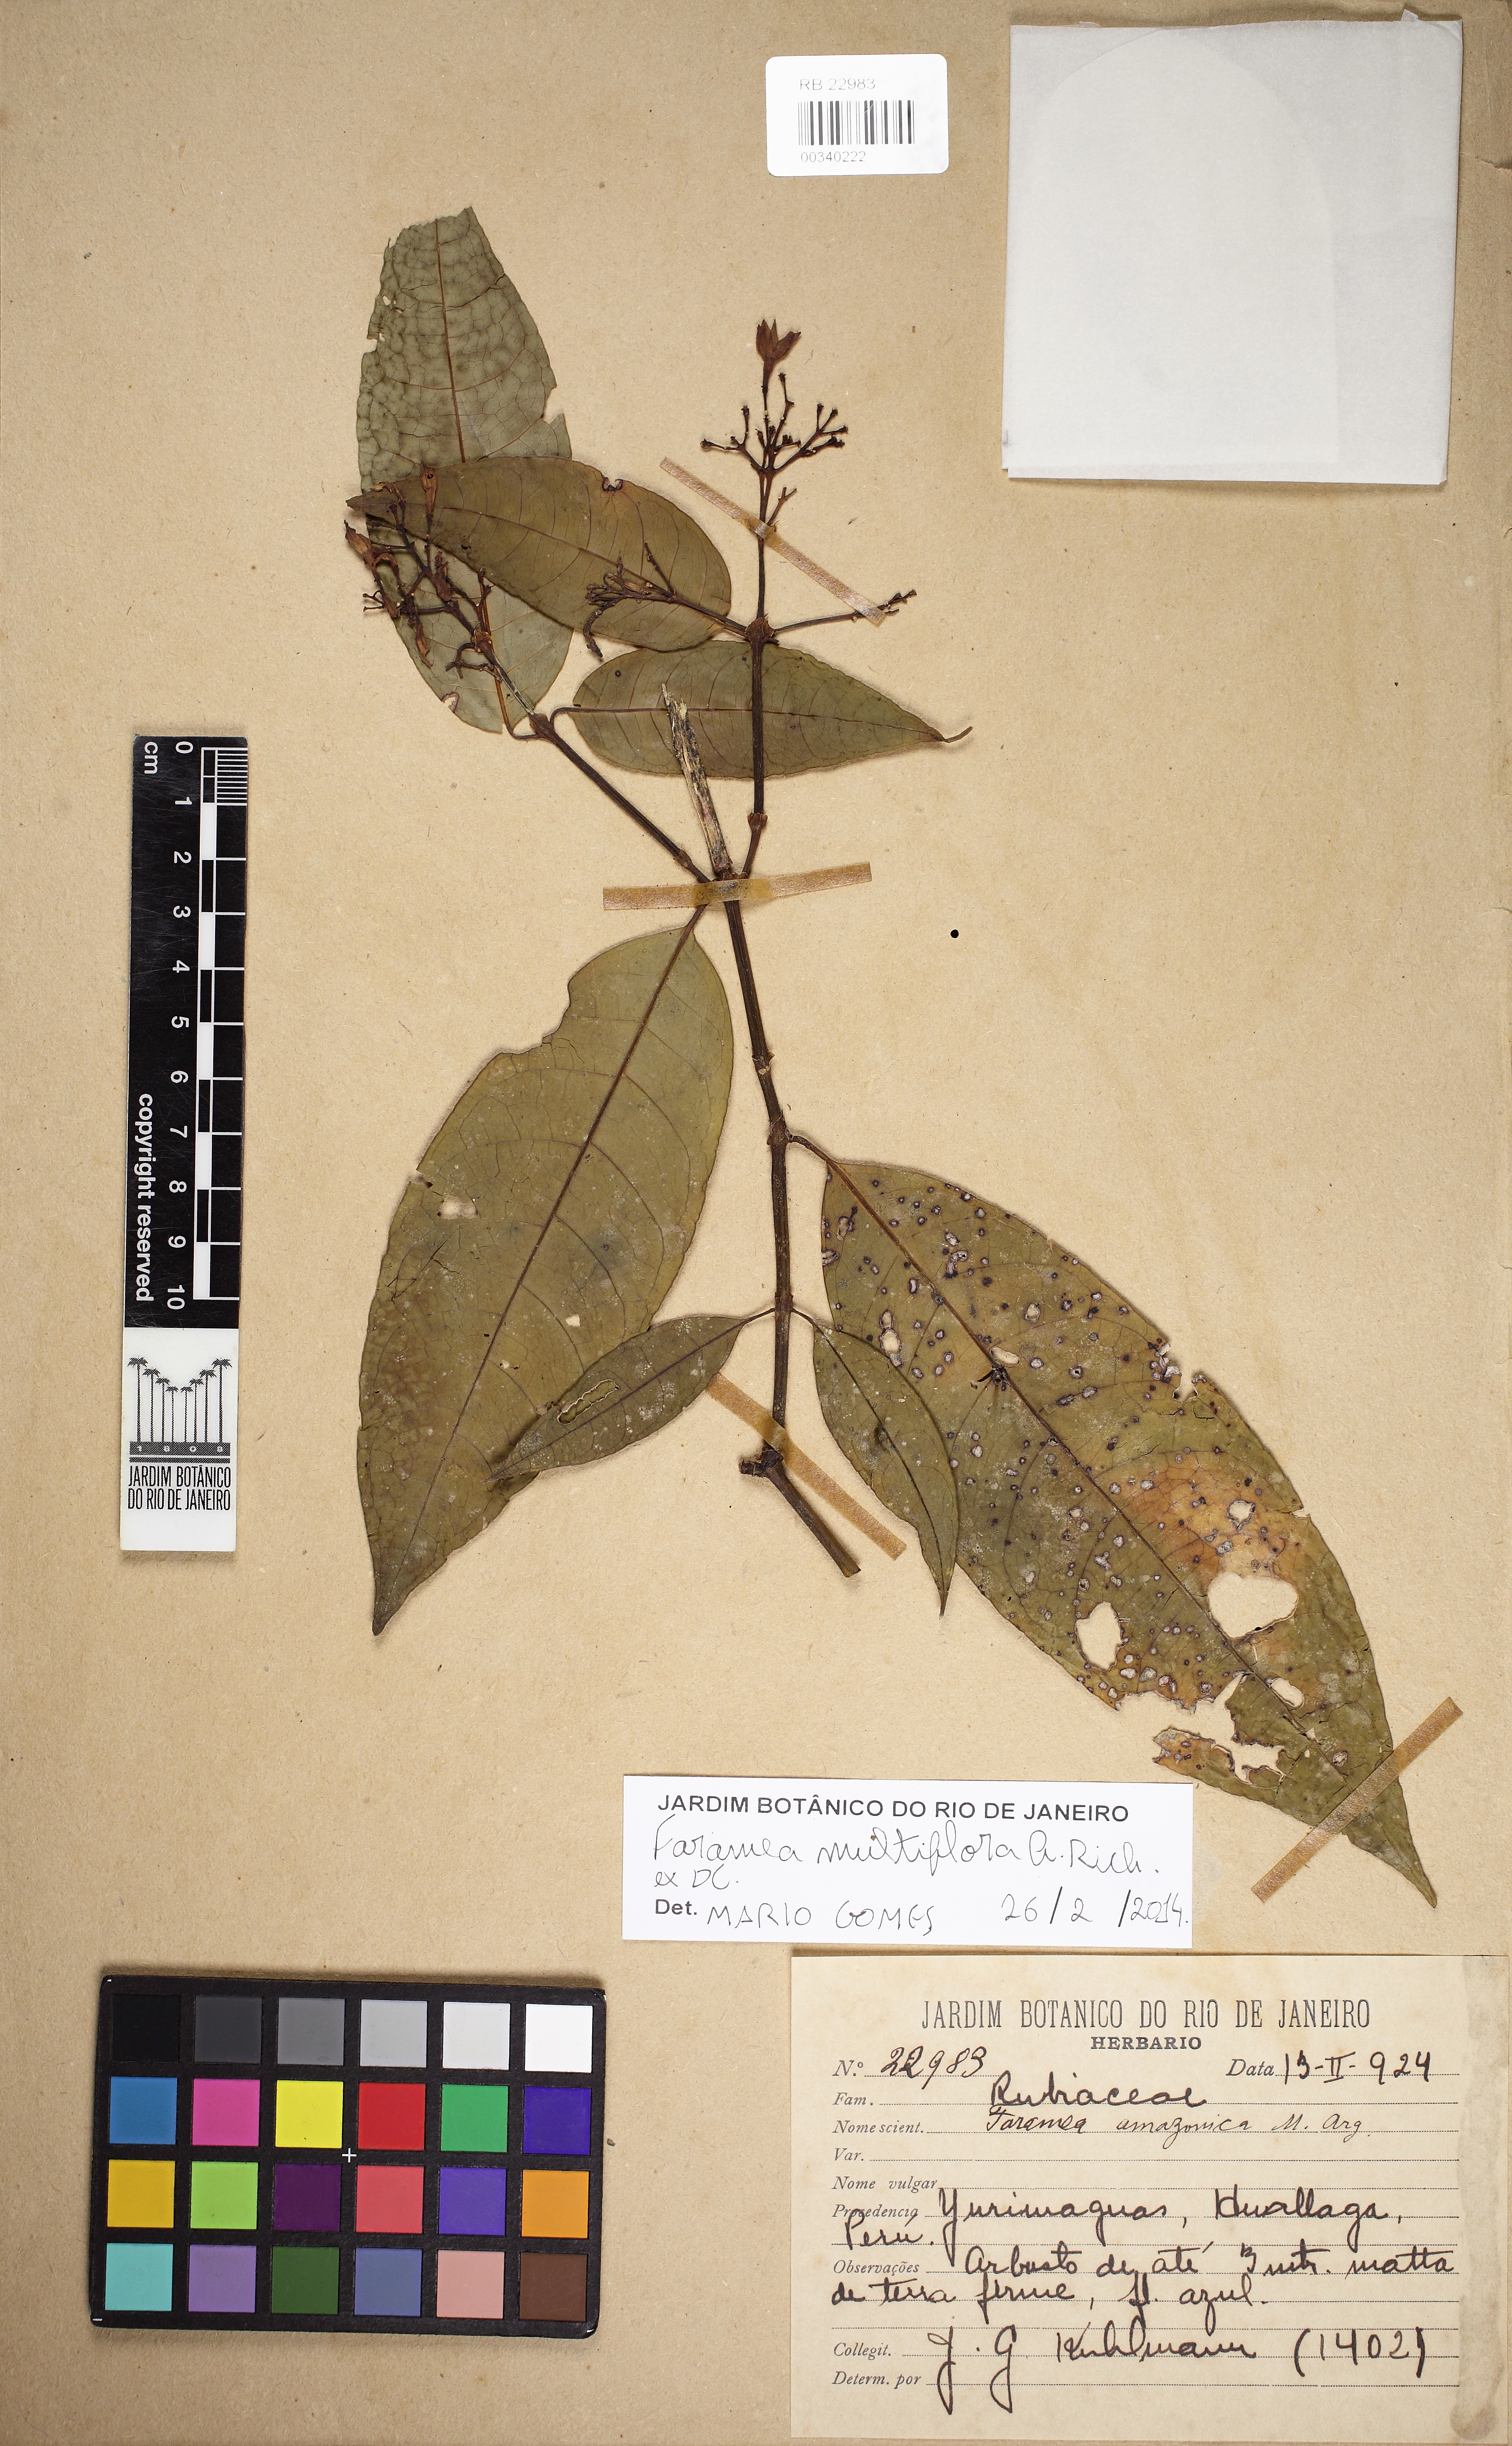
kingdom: Plantae
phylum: Tracheophyta
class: Magnoliopsida
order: Gentianales
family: Rubiaceae
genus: Faramea
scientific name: Faramea multiflora
